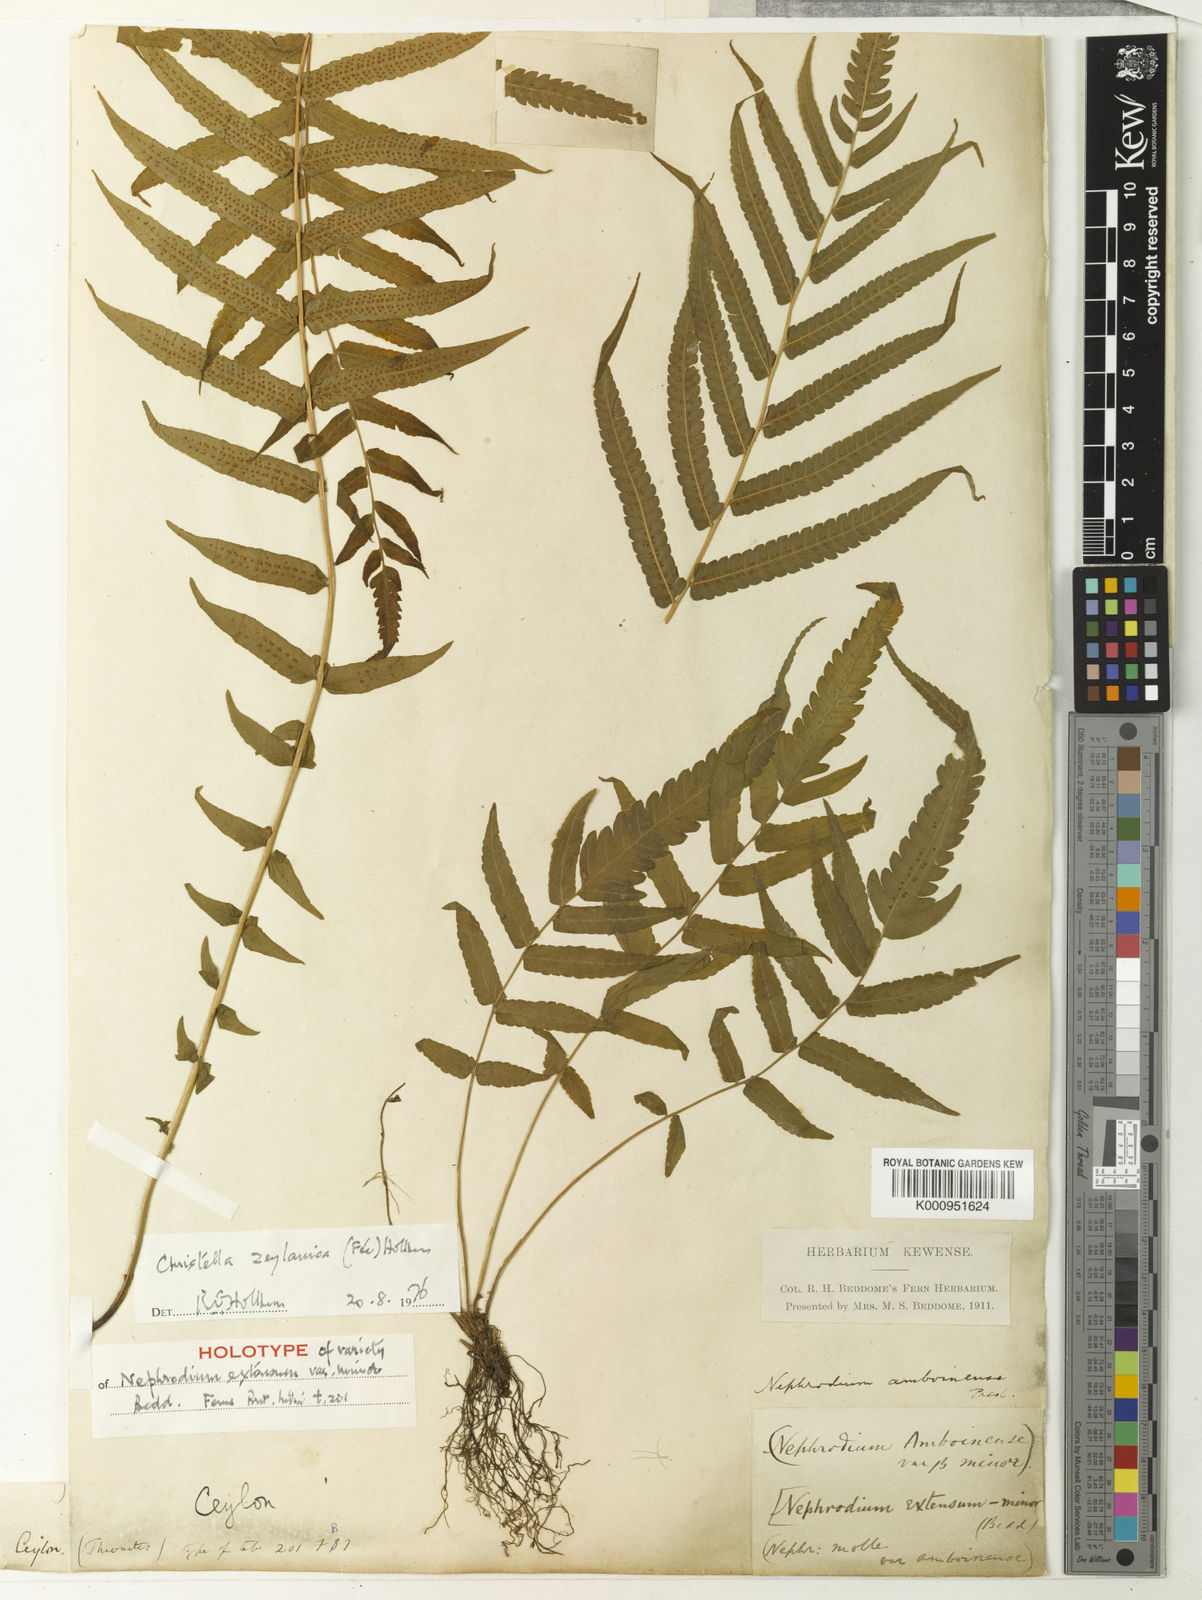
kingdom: Plantae
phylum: Tracheophyta
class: Polypodiopsida
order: Polypodiales
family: Thelypteridaceae
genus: Christella
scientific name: Christella
